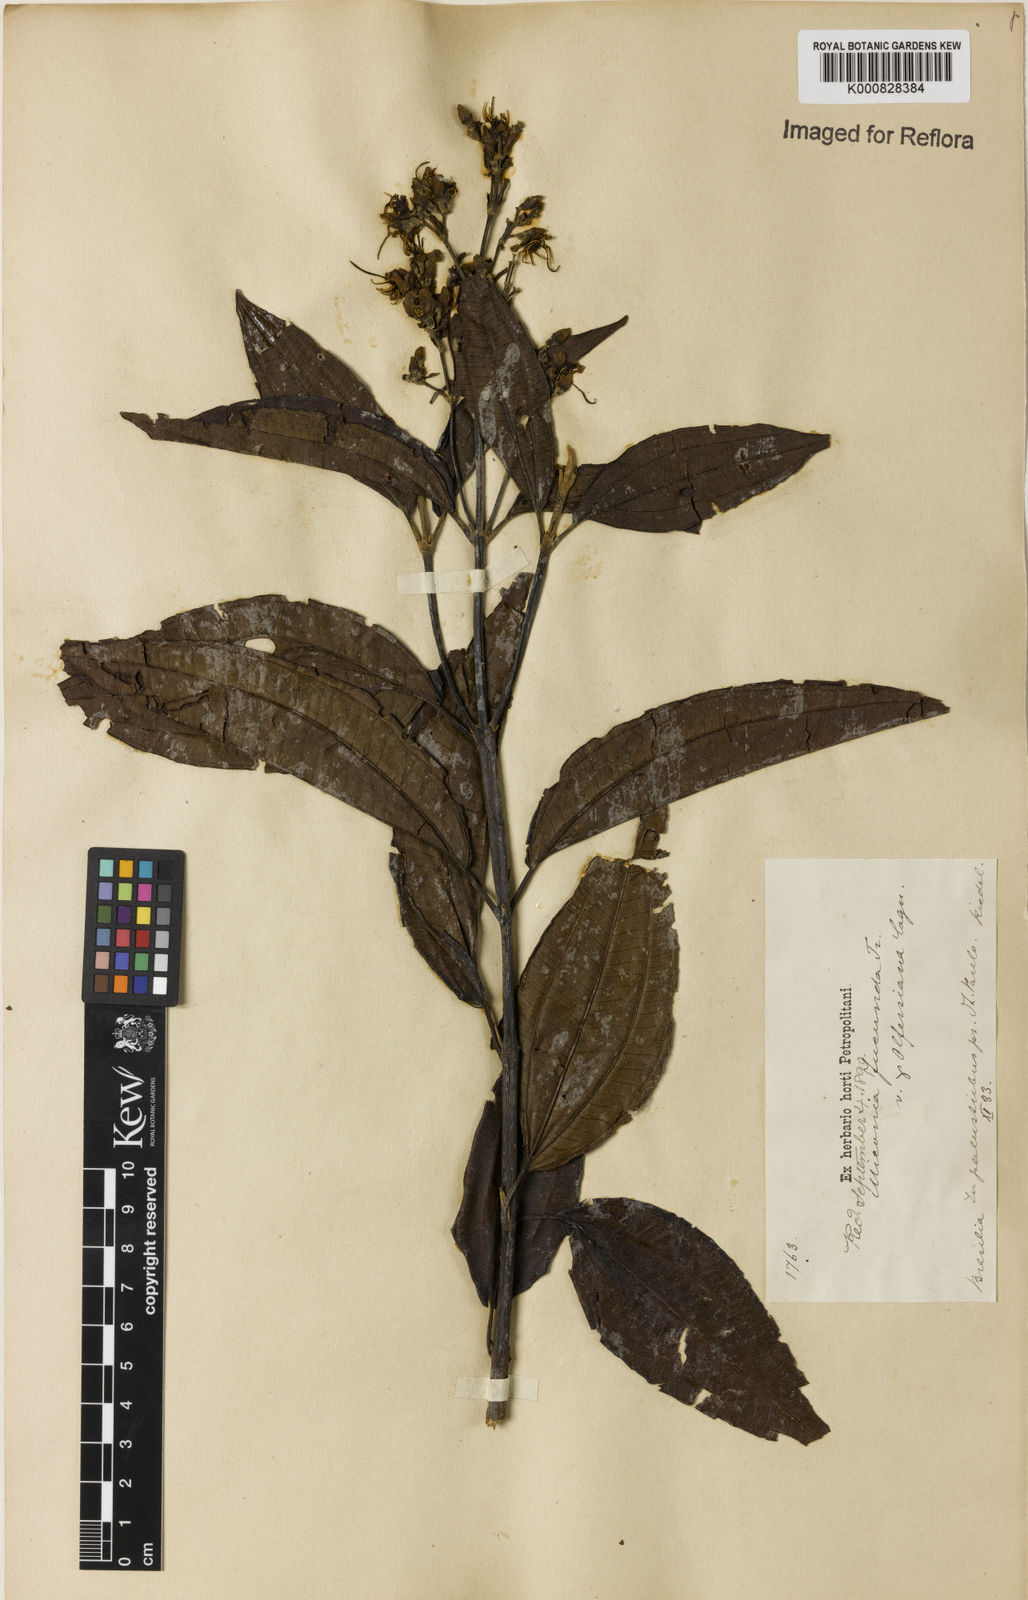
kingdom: Plantae
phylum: Tracheophyta
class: Magnoliopsida
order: Myrtales
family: Melastomataceae
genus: Miconia
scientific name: Miconia jucunda
